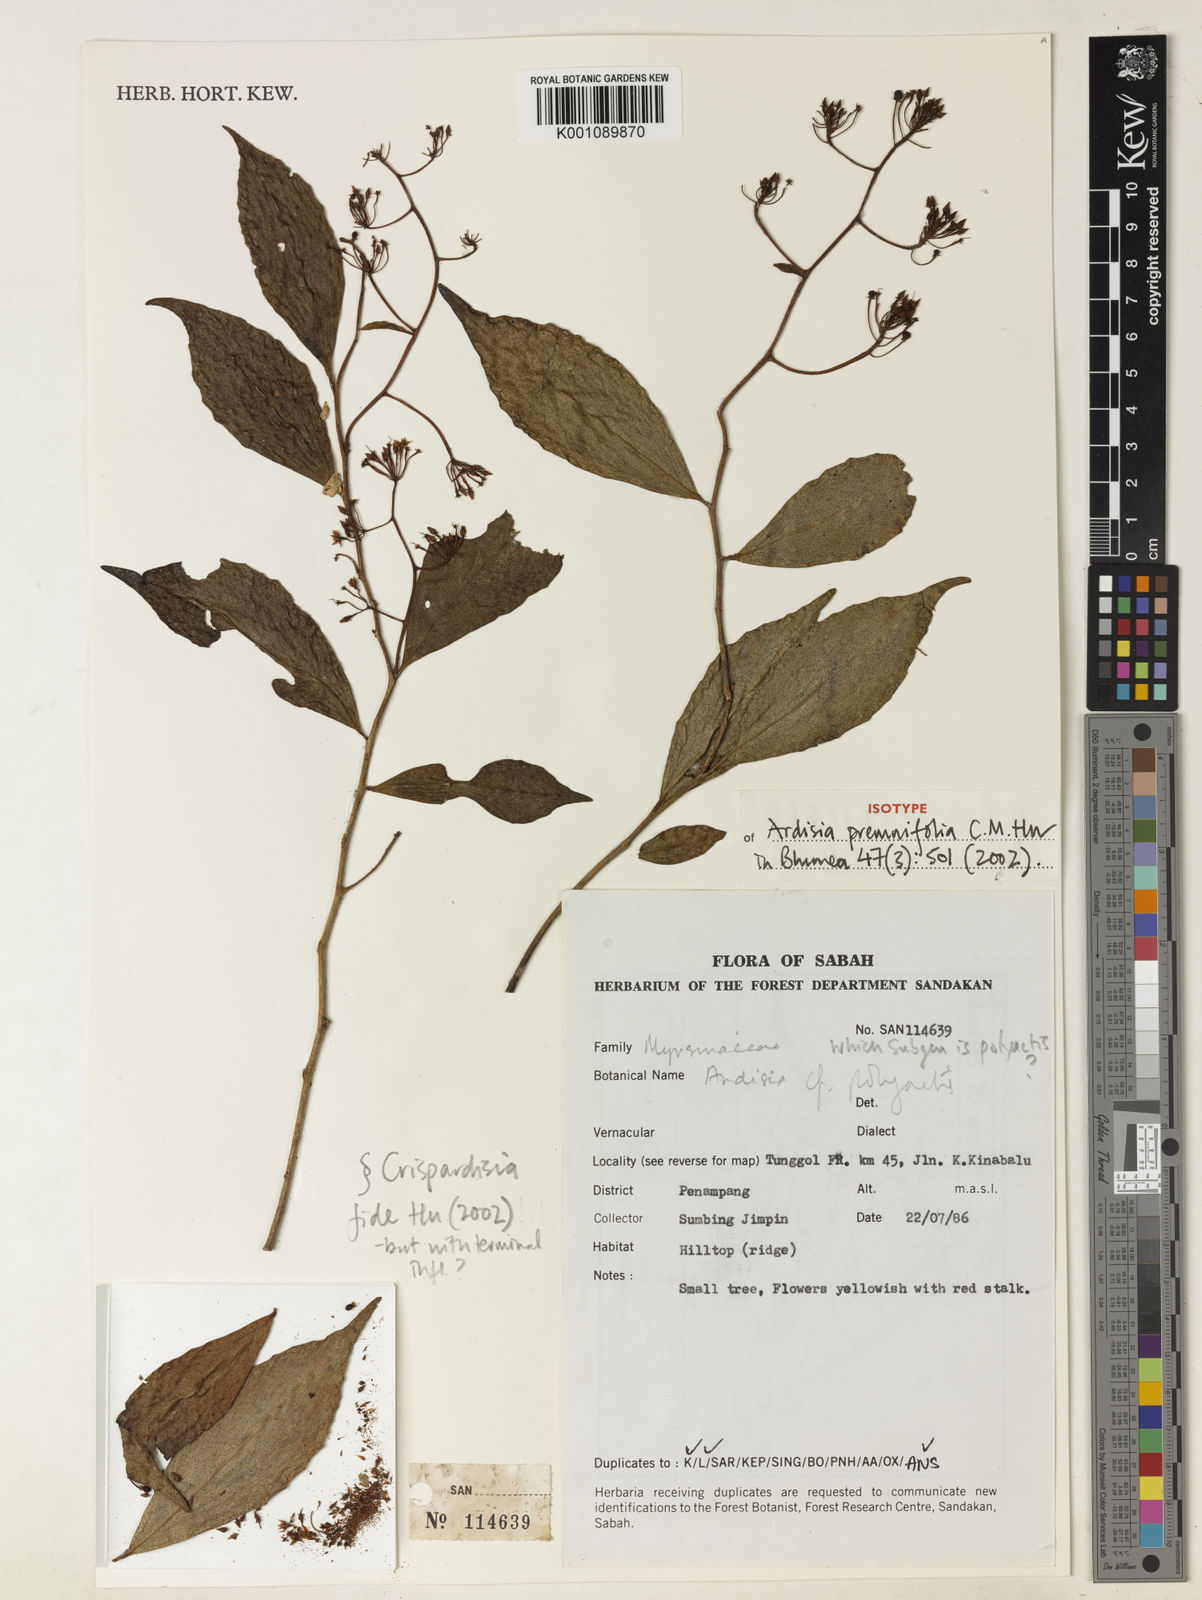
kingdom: Plantae
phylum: Tracheophyta
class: Magnoliopsida
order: Ericales
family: Primulaceae
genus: Ardisia
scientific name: Ardisia premnifolia
